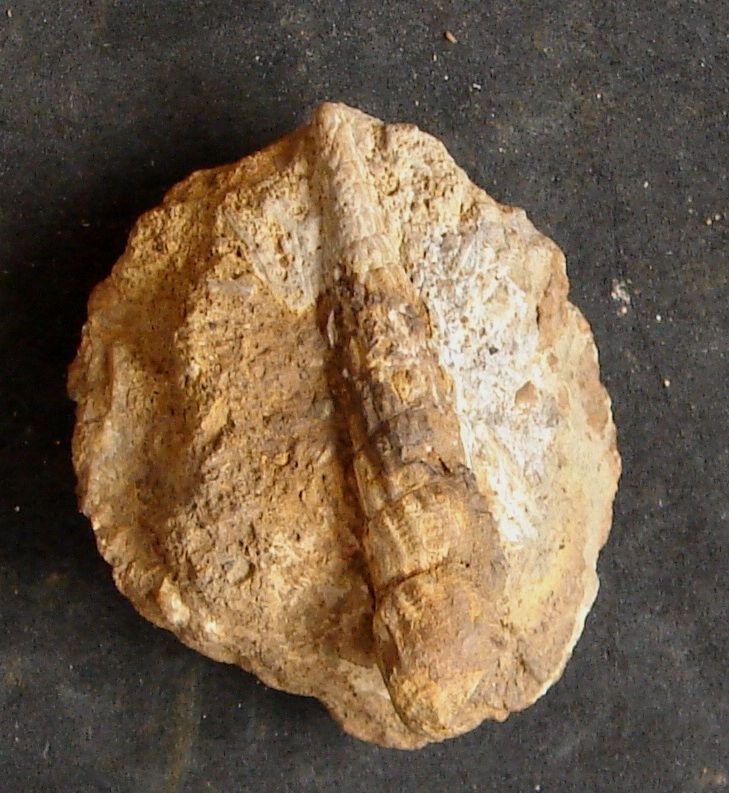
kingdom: Animalia
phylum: Mollusca
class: Gastropoda
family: Zygopleuridae
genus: Zygopleura
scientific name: Zygopleura
